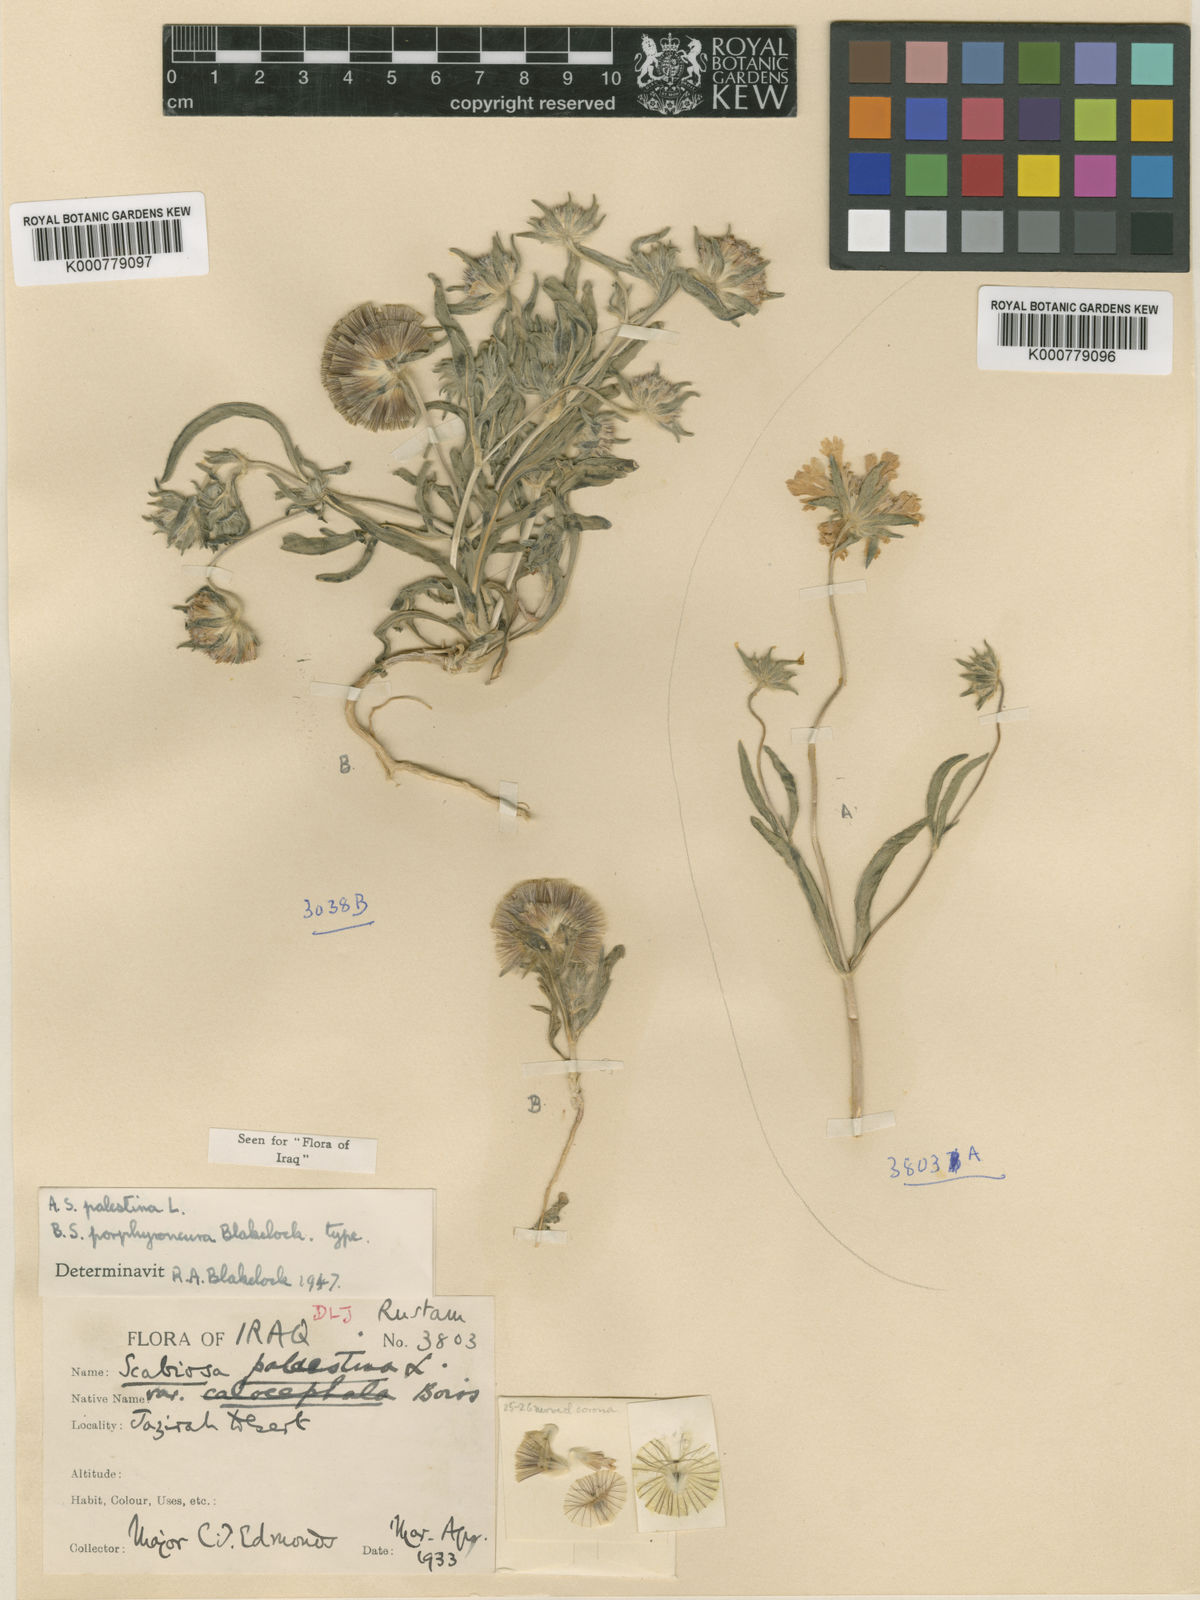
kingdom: Plantae
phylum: Tracheophyta
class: Magnoliopsida
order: Dipsacales
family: Caprifoliaceae
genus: Lomelosia
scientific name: Lomelosia porphyroneura
